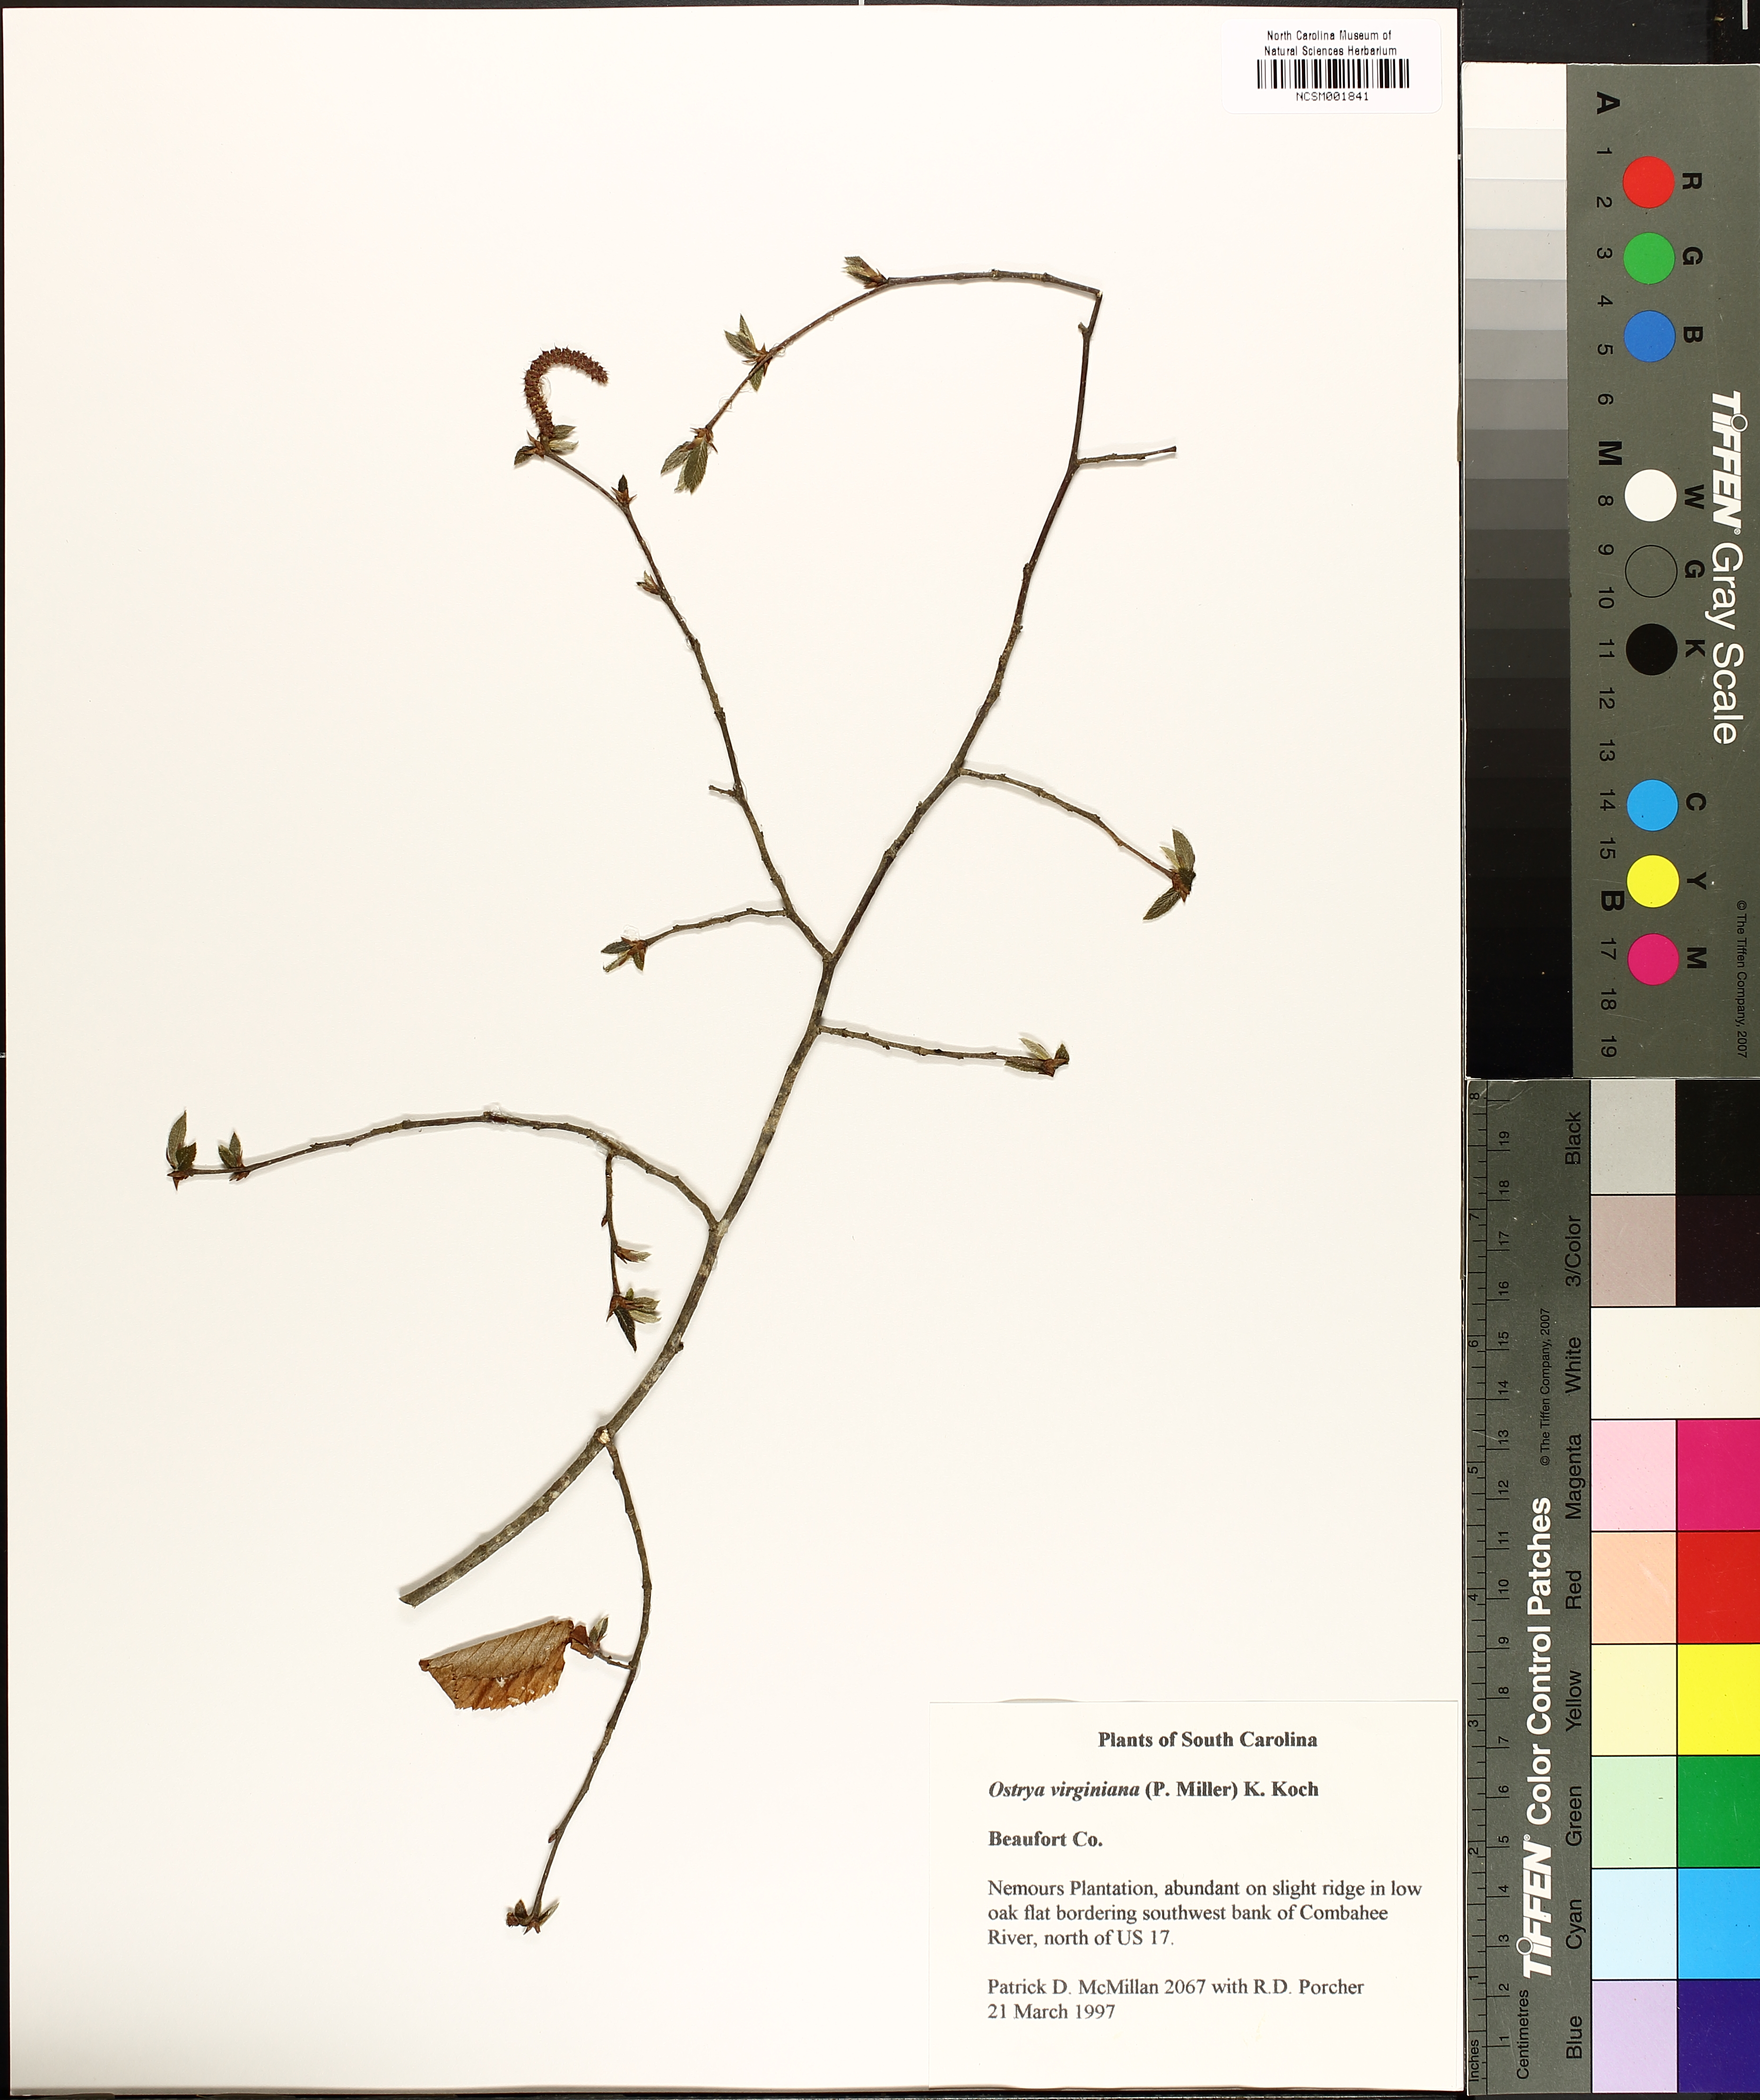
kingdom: Plantae
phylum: Tracheophyta
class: Magnoliopsida
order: Fagales
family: Betulaceae
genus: Ostrya
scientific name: Ostrya virginiana
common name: Ironwood
